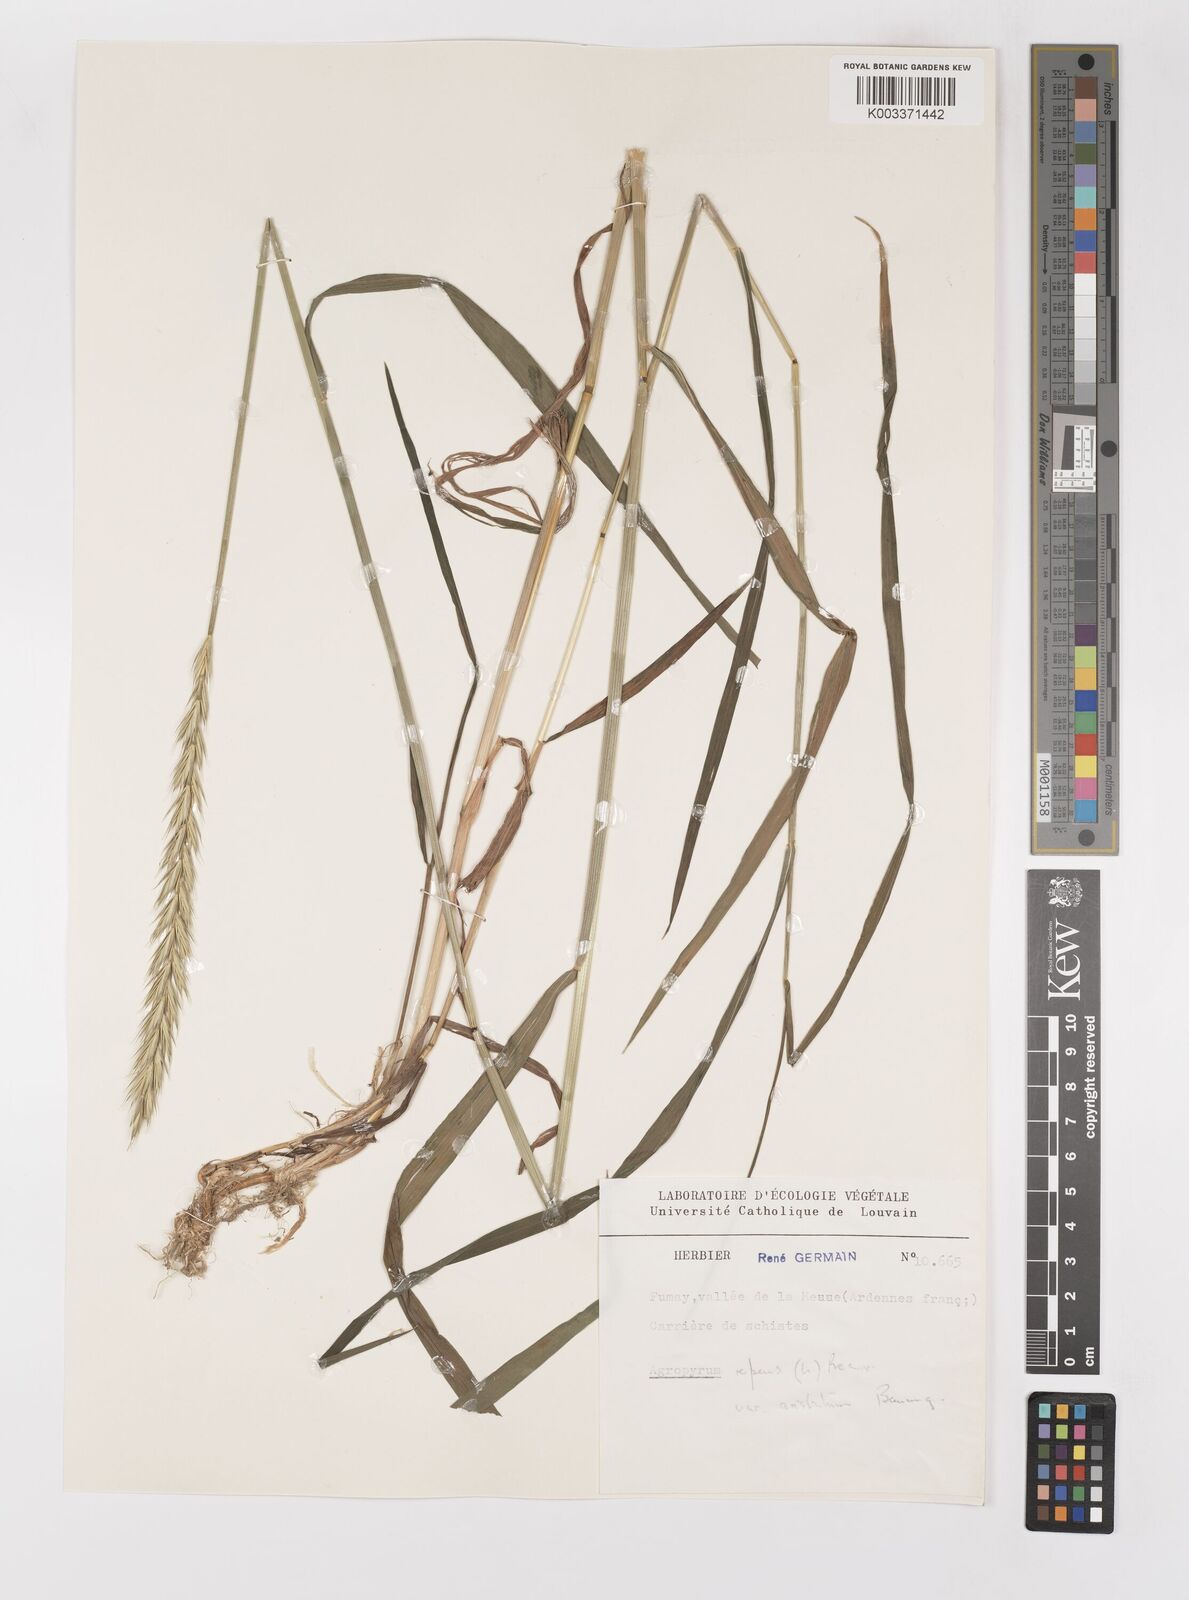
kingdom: Plantae
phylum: Tracheophyta
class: Liliopsida
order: Poales
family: Poaceae
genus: Elymus
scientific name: Elymus repens
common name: Quackgrass
